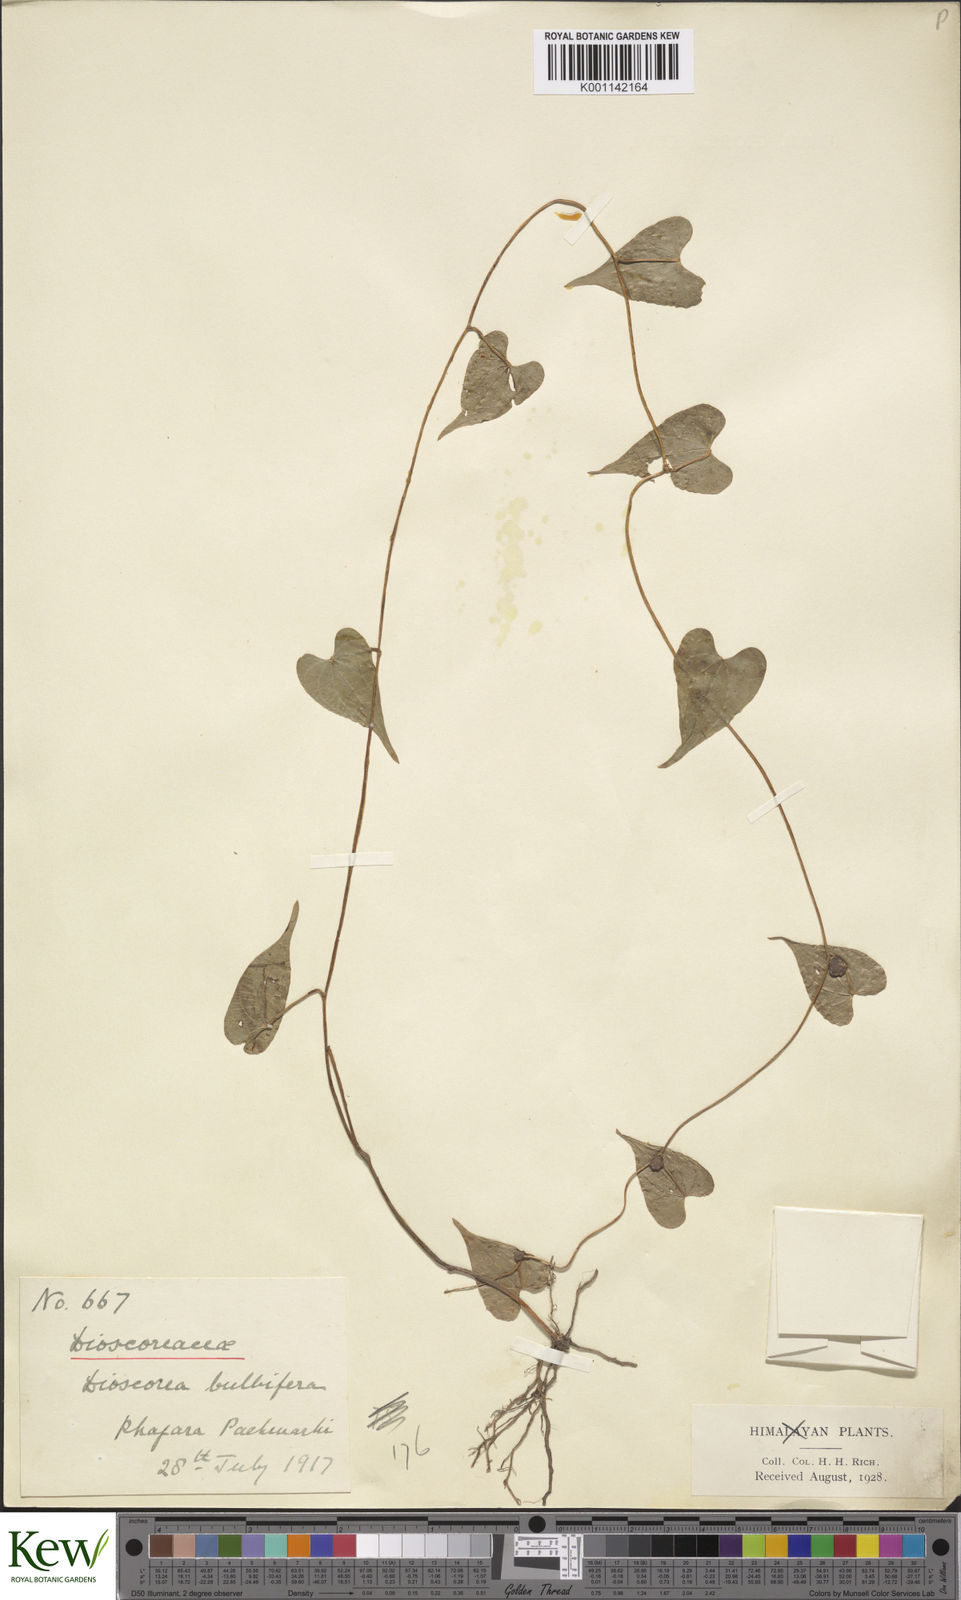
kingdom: Plantae
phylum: Tracheophyta
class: Liliopsida
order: Dioscoreales
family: Dioscoreaceae
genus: Dioscorea
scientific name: Dioscorea bulbifera
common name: Air yam
